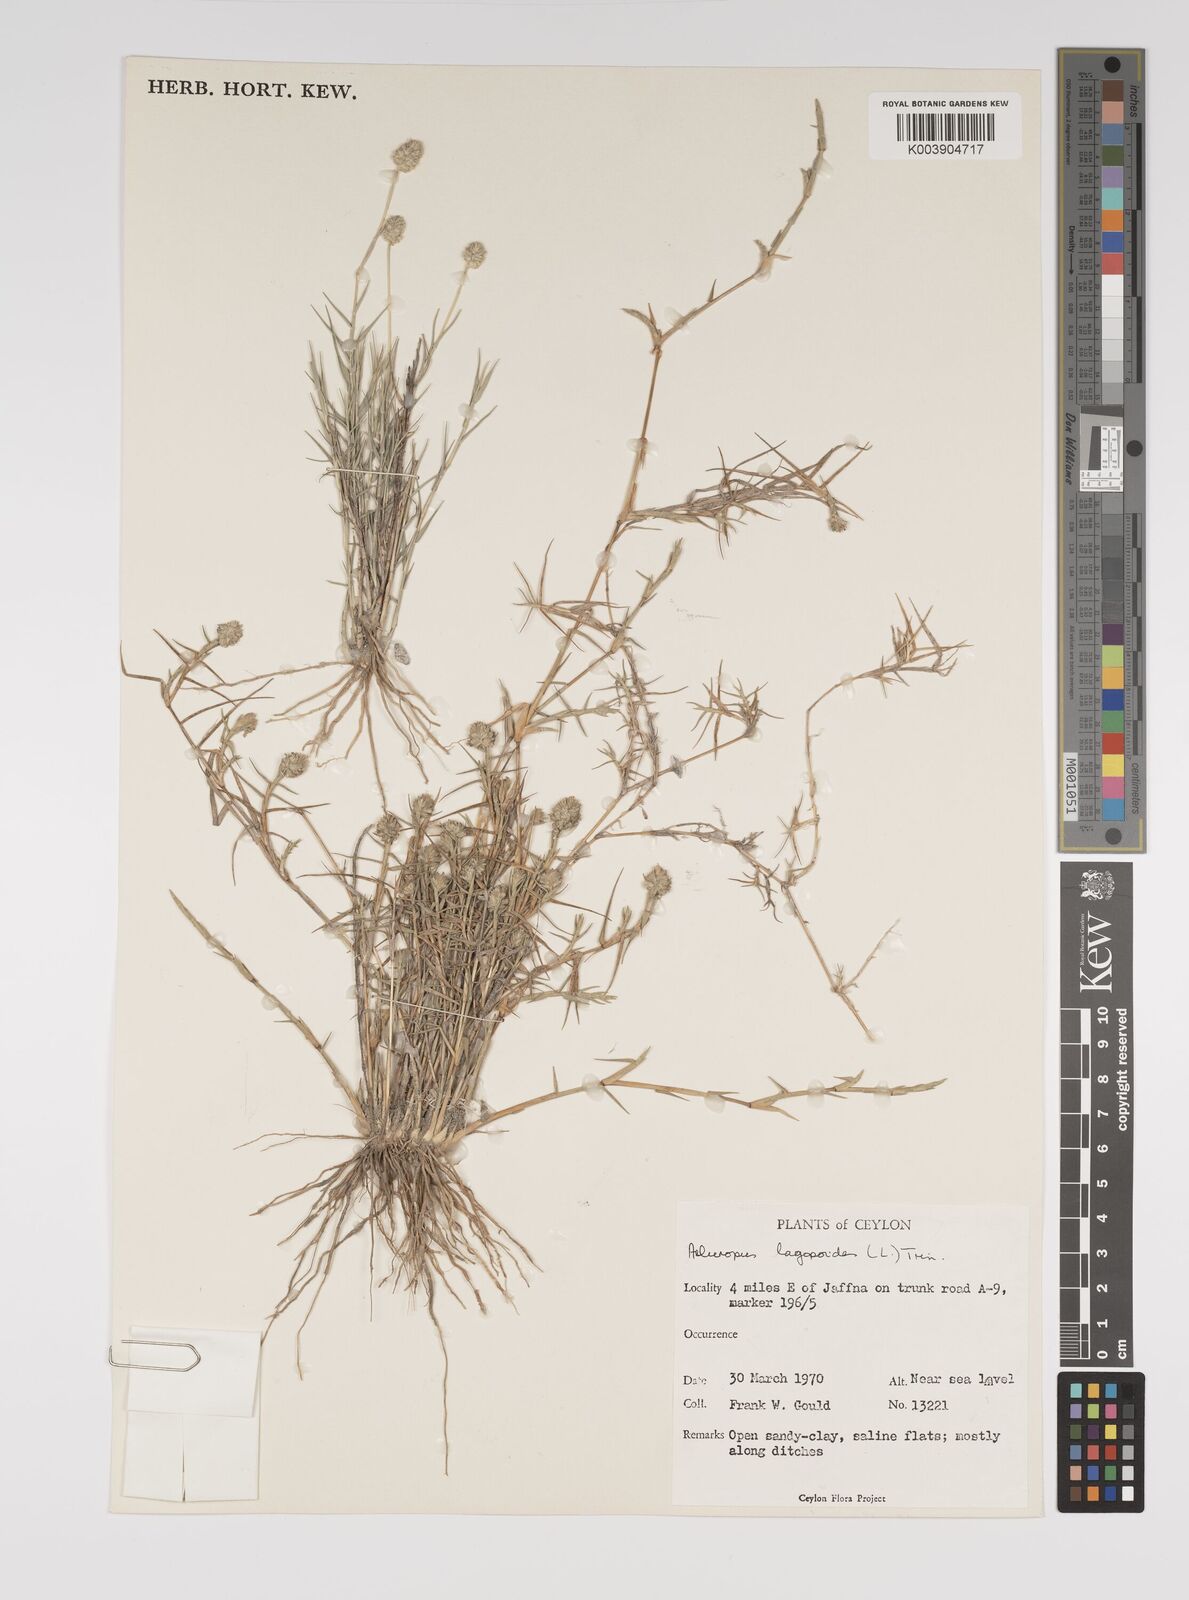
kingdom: Plantae
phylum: Tracheophyta
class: Liliopsida
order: Poales
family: Poaceae
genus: Aeluropus
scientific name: Aeluropus lagopoides
